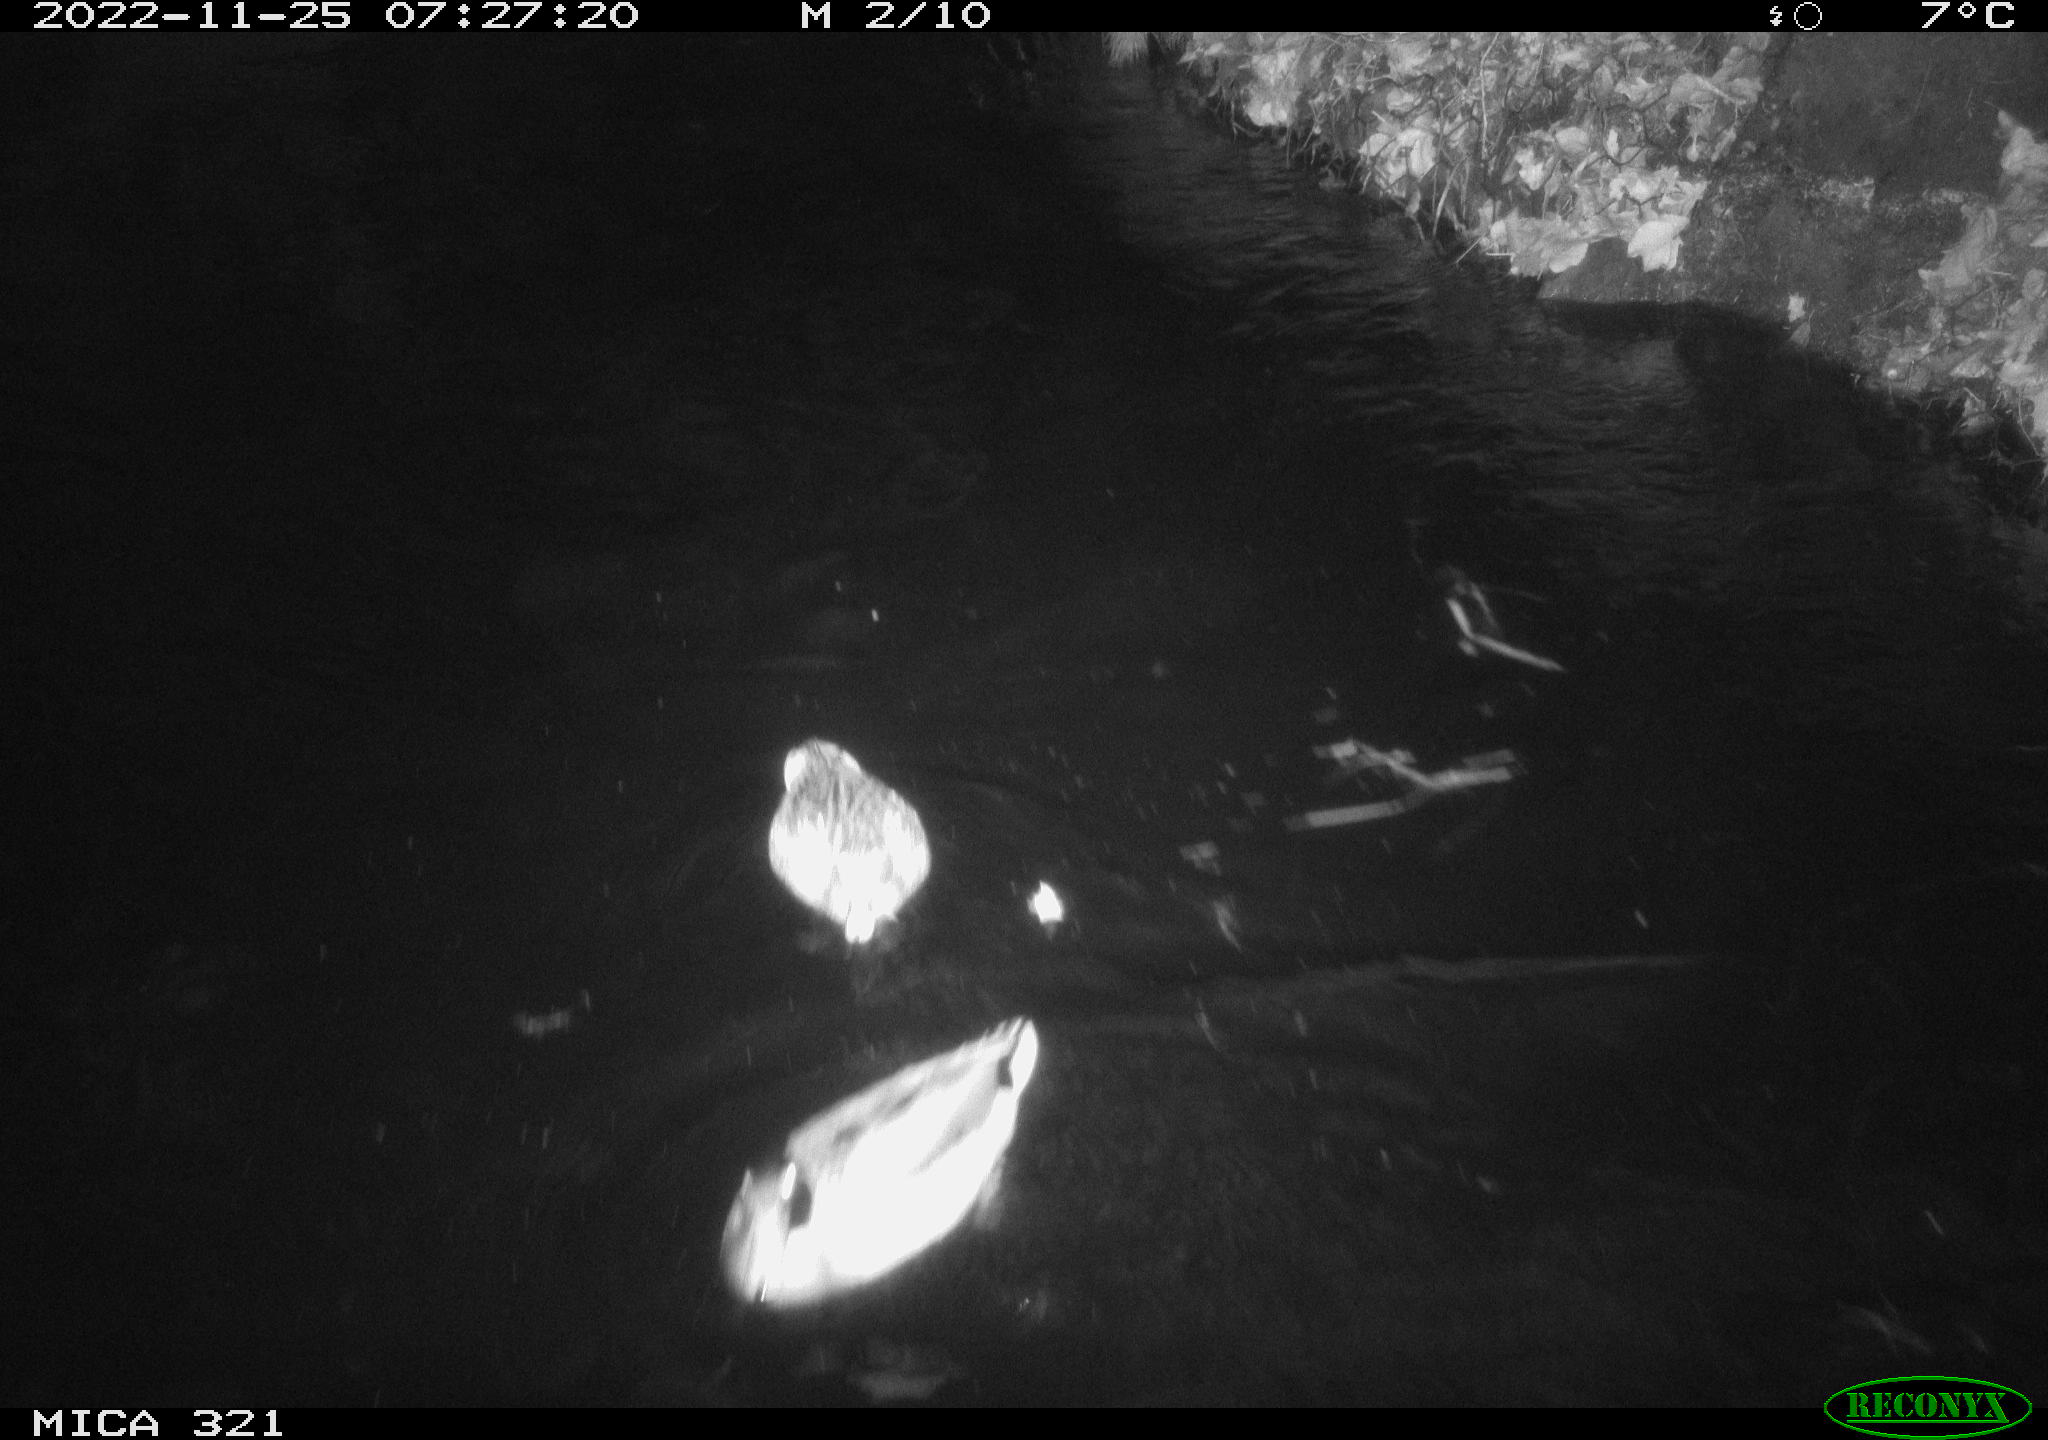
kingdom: Animalia
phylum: Chordata
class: Mammalia
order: Rodentia
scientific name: Rodentia
